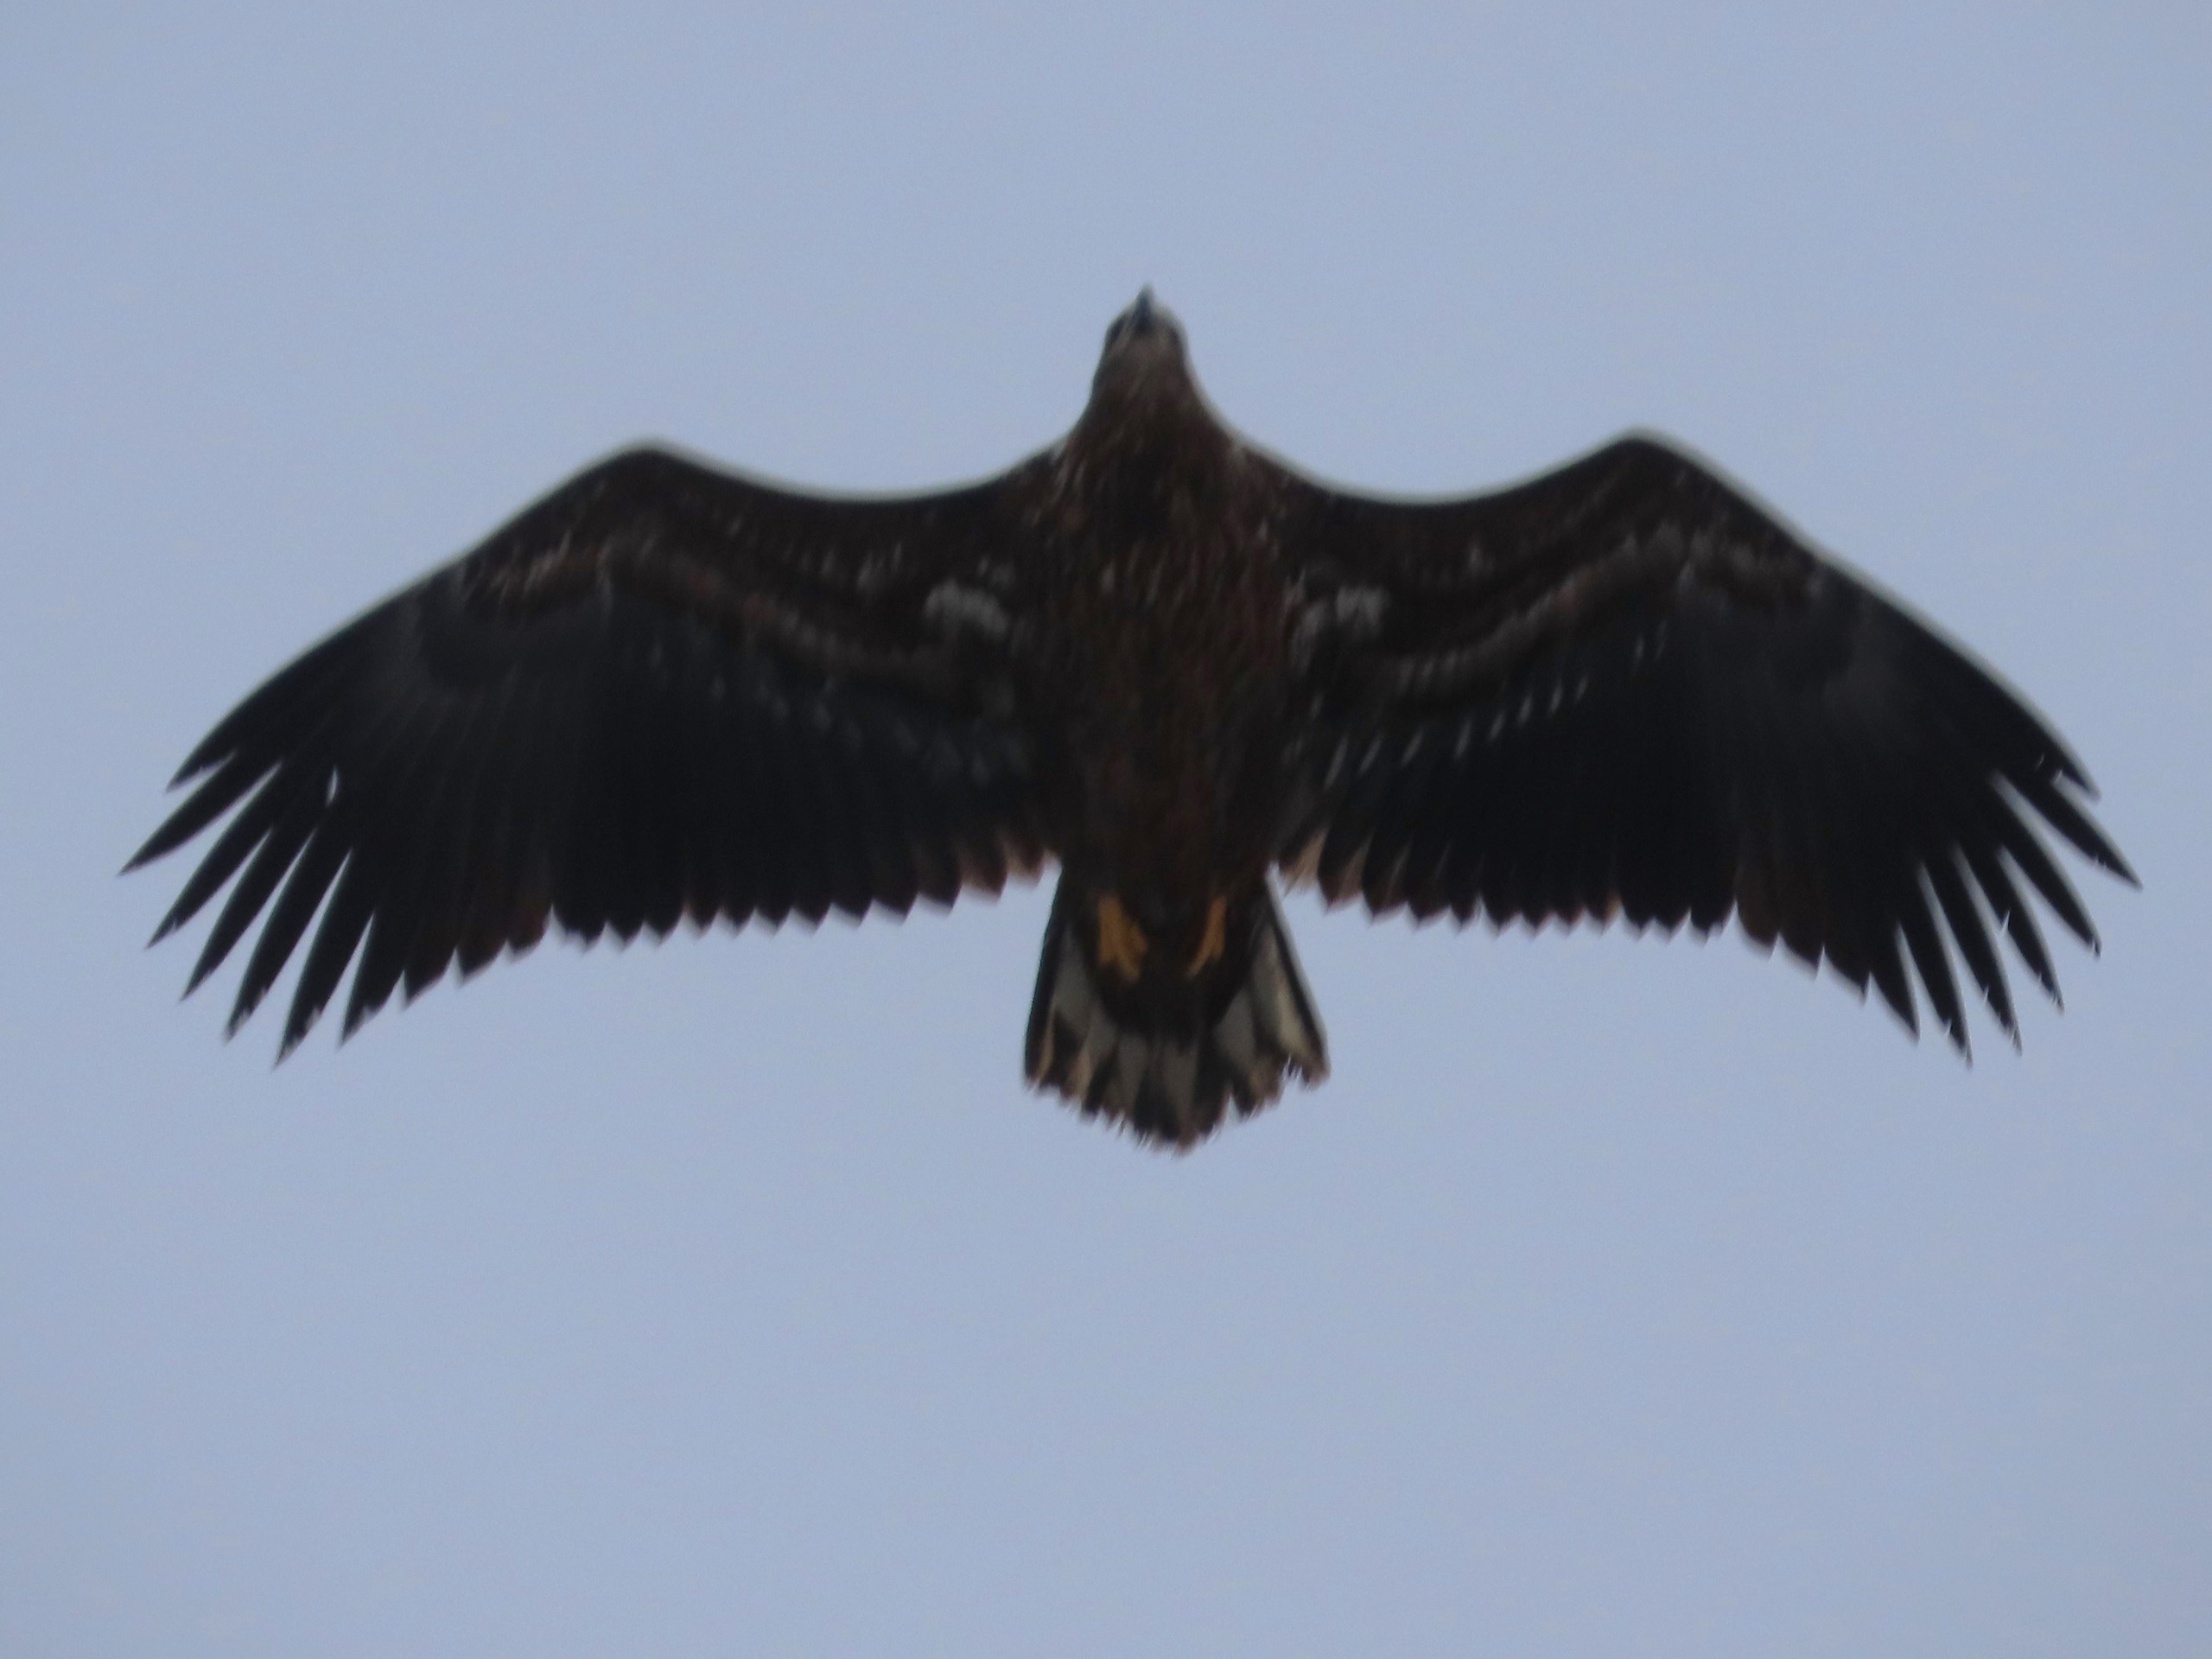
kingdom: Animalia
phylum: Chordata
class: Aves
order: Accipitriformes
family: Accipitridae
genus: Haliaeetus
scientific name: Haliaeetus albicilla
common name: Havørn
